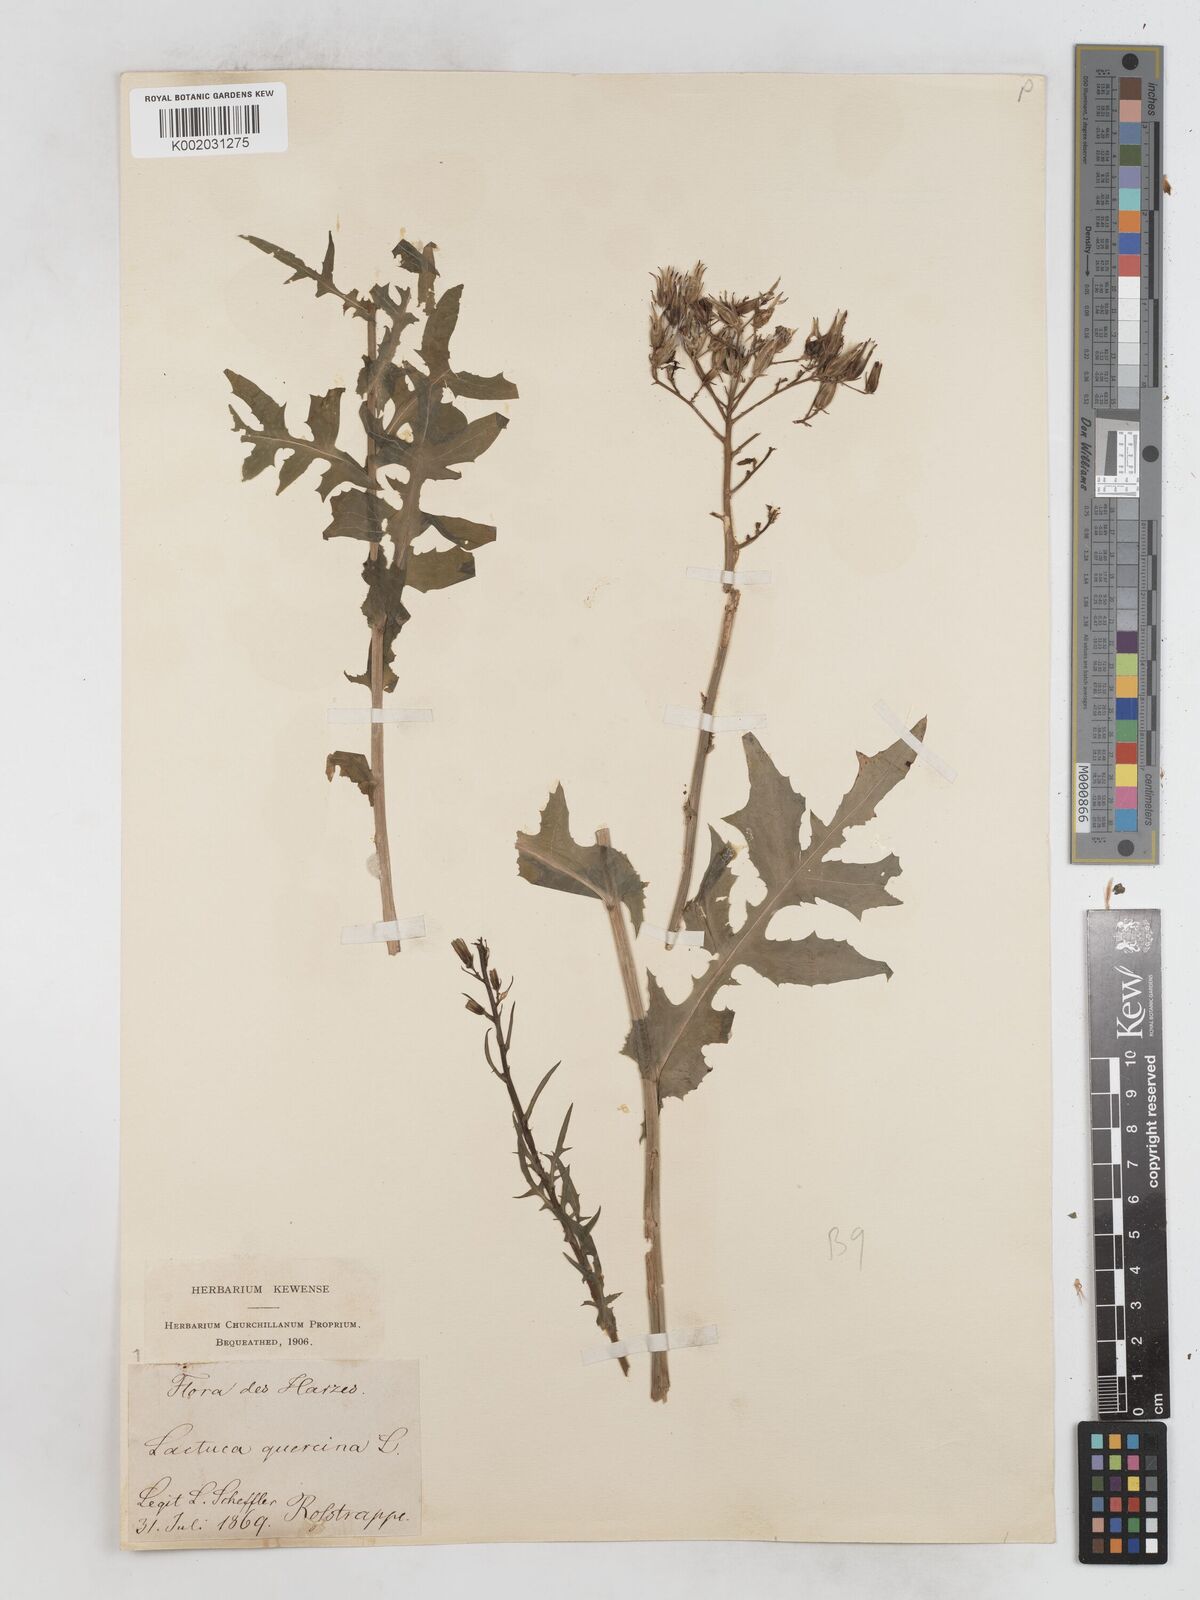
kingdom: Plantae
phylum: Tracheophyta
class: Magnoliopsida
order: Asterales
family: Asteraceae
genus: Lactuca
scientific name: Lactuca quercina
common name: Wild lettuce
